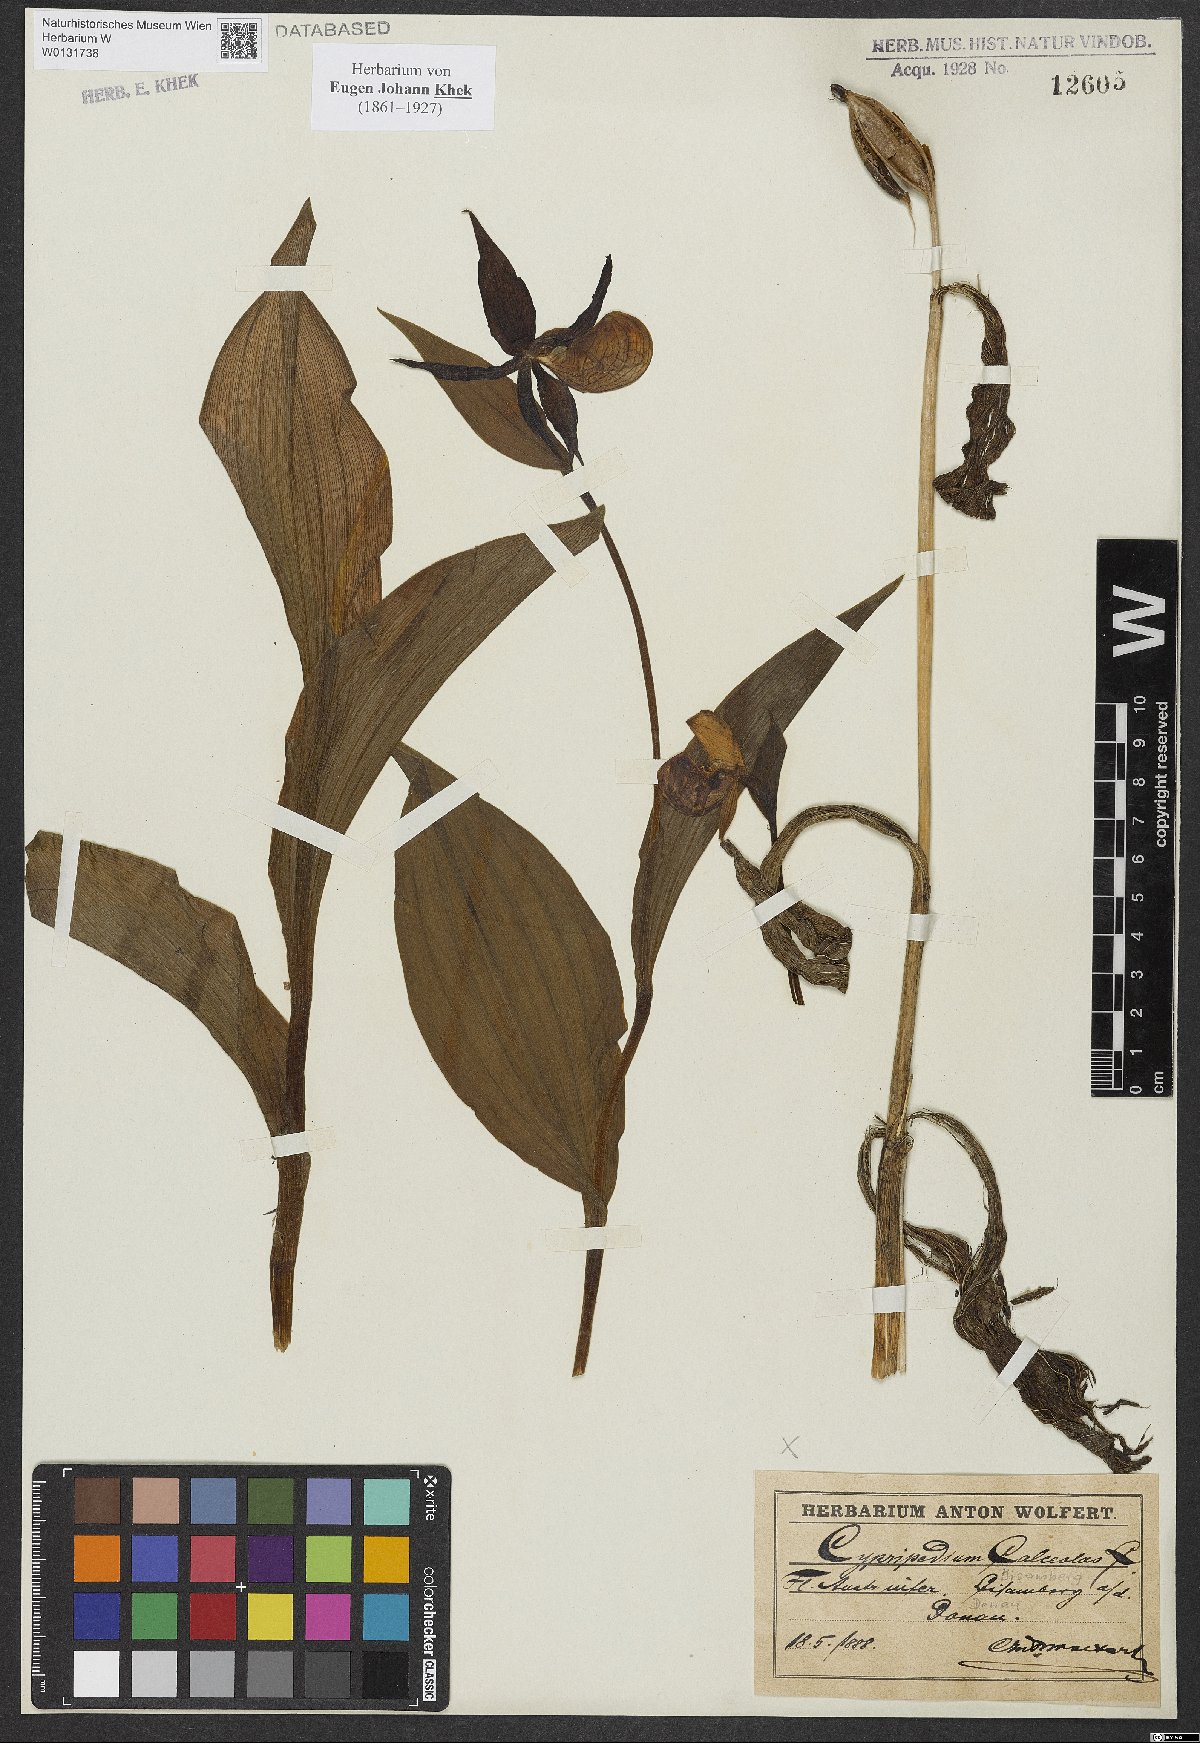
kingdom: Plantae
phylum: Tracheophyta
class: Liliopsida
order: Asparagales
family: Orchidaceae
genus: Cypripedium
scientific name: Cypripedium calceolus
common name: Lady's-slipper
